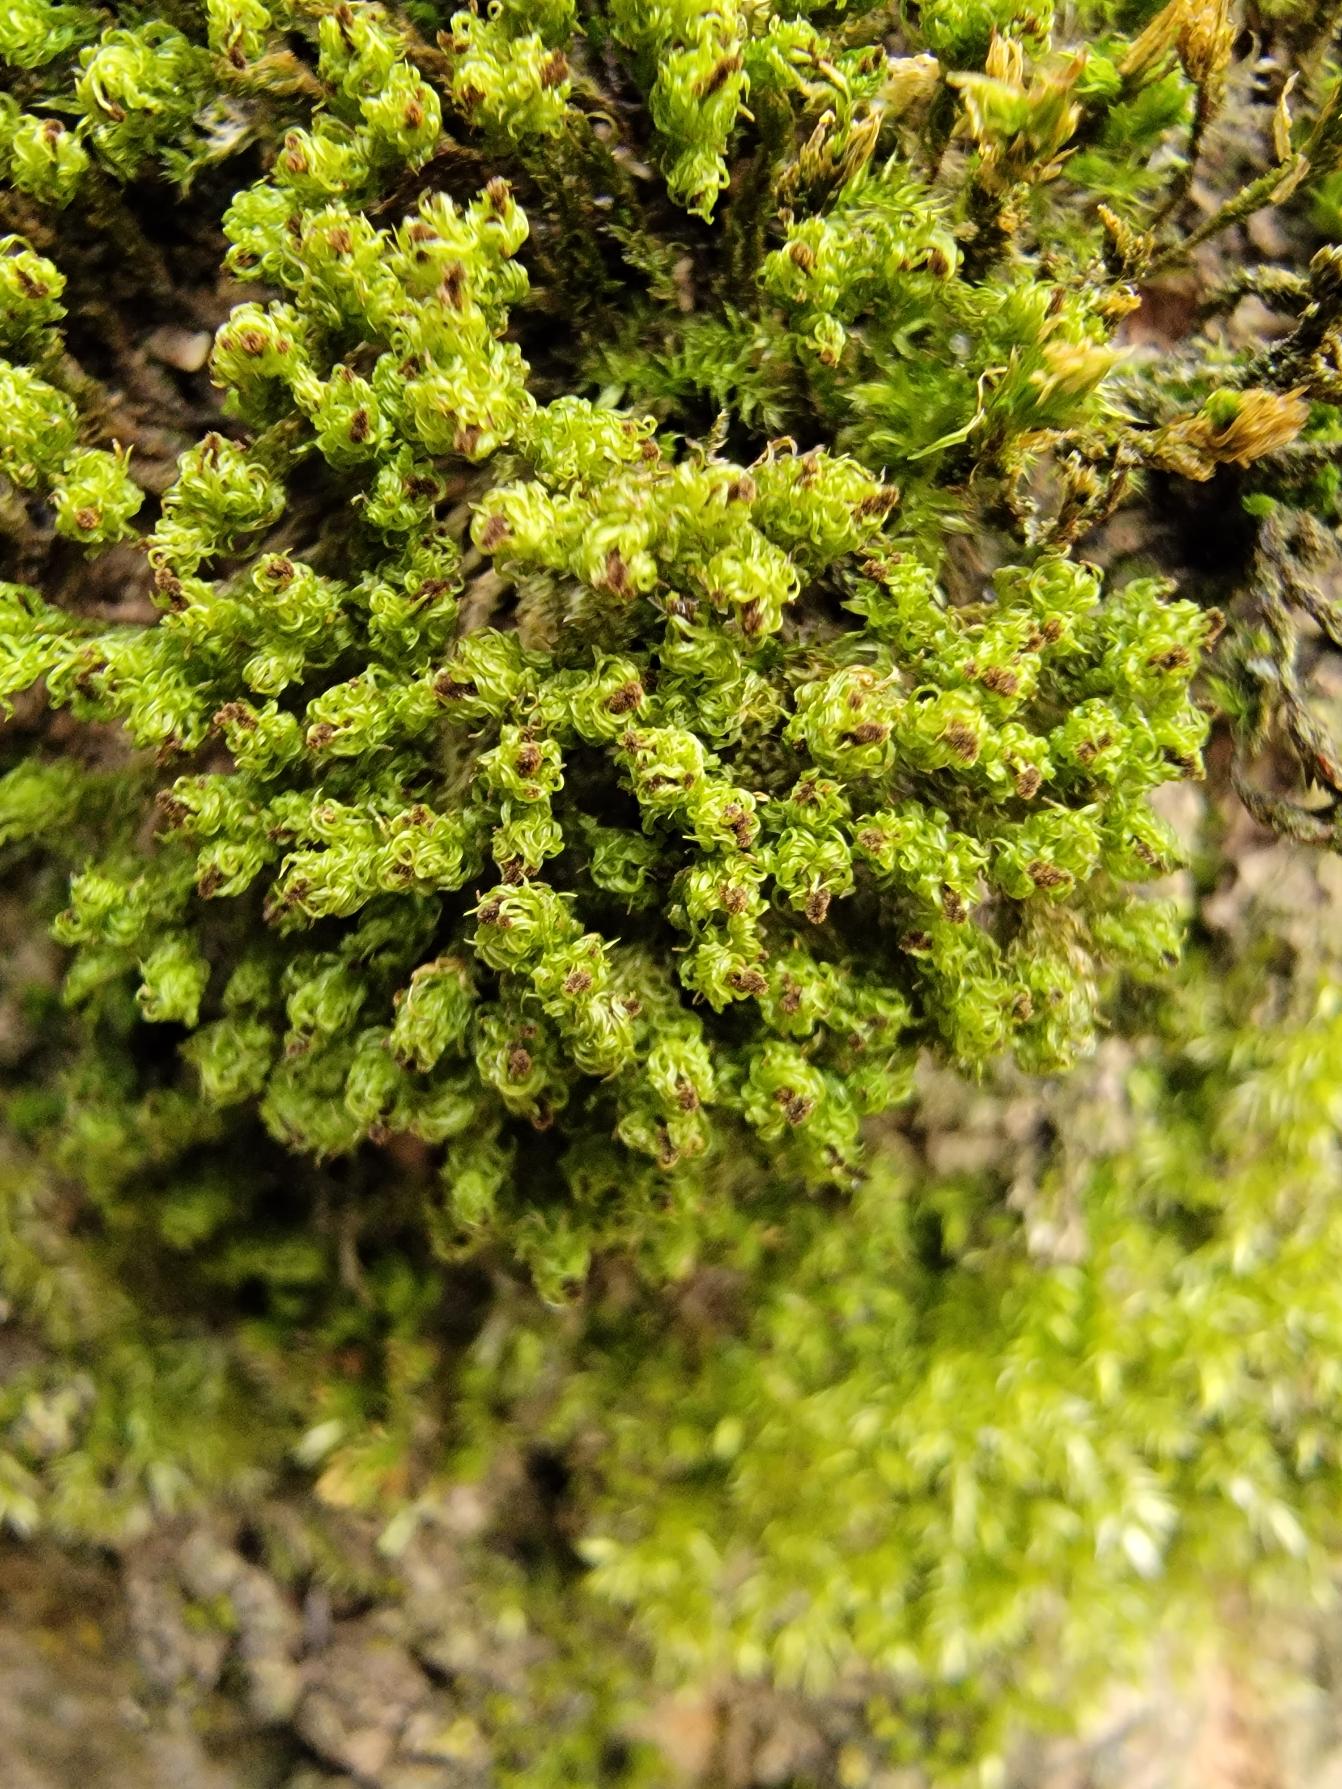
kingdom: Plantae
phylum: Bryophyta
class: Bryopsida
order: Orthotrichales
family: Orthotrichaceae
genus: Plenogemma
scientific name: Plenogemma phyllantha
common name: Stor låddenhætte
